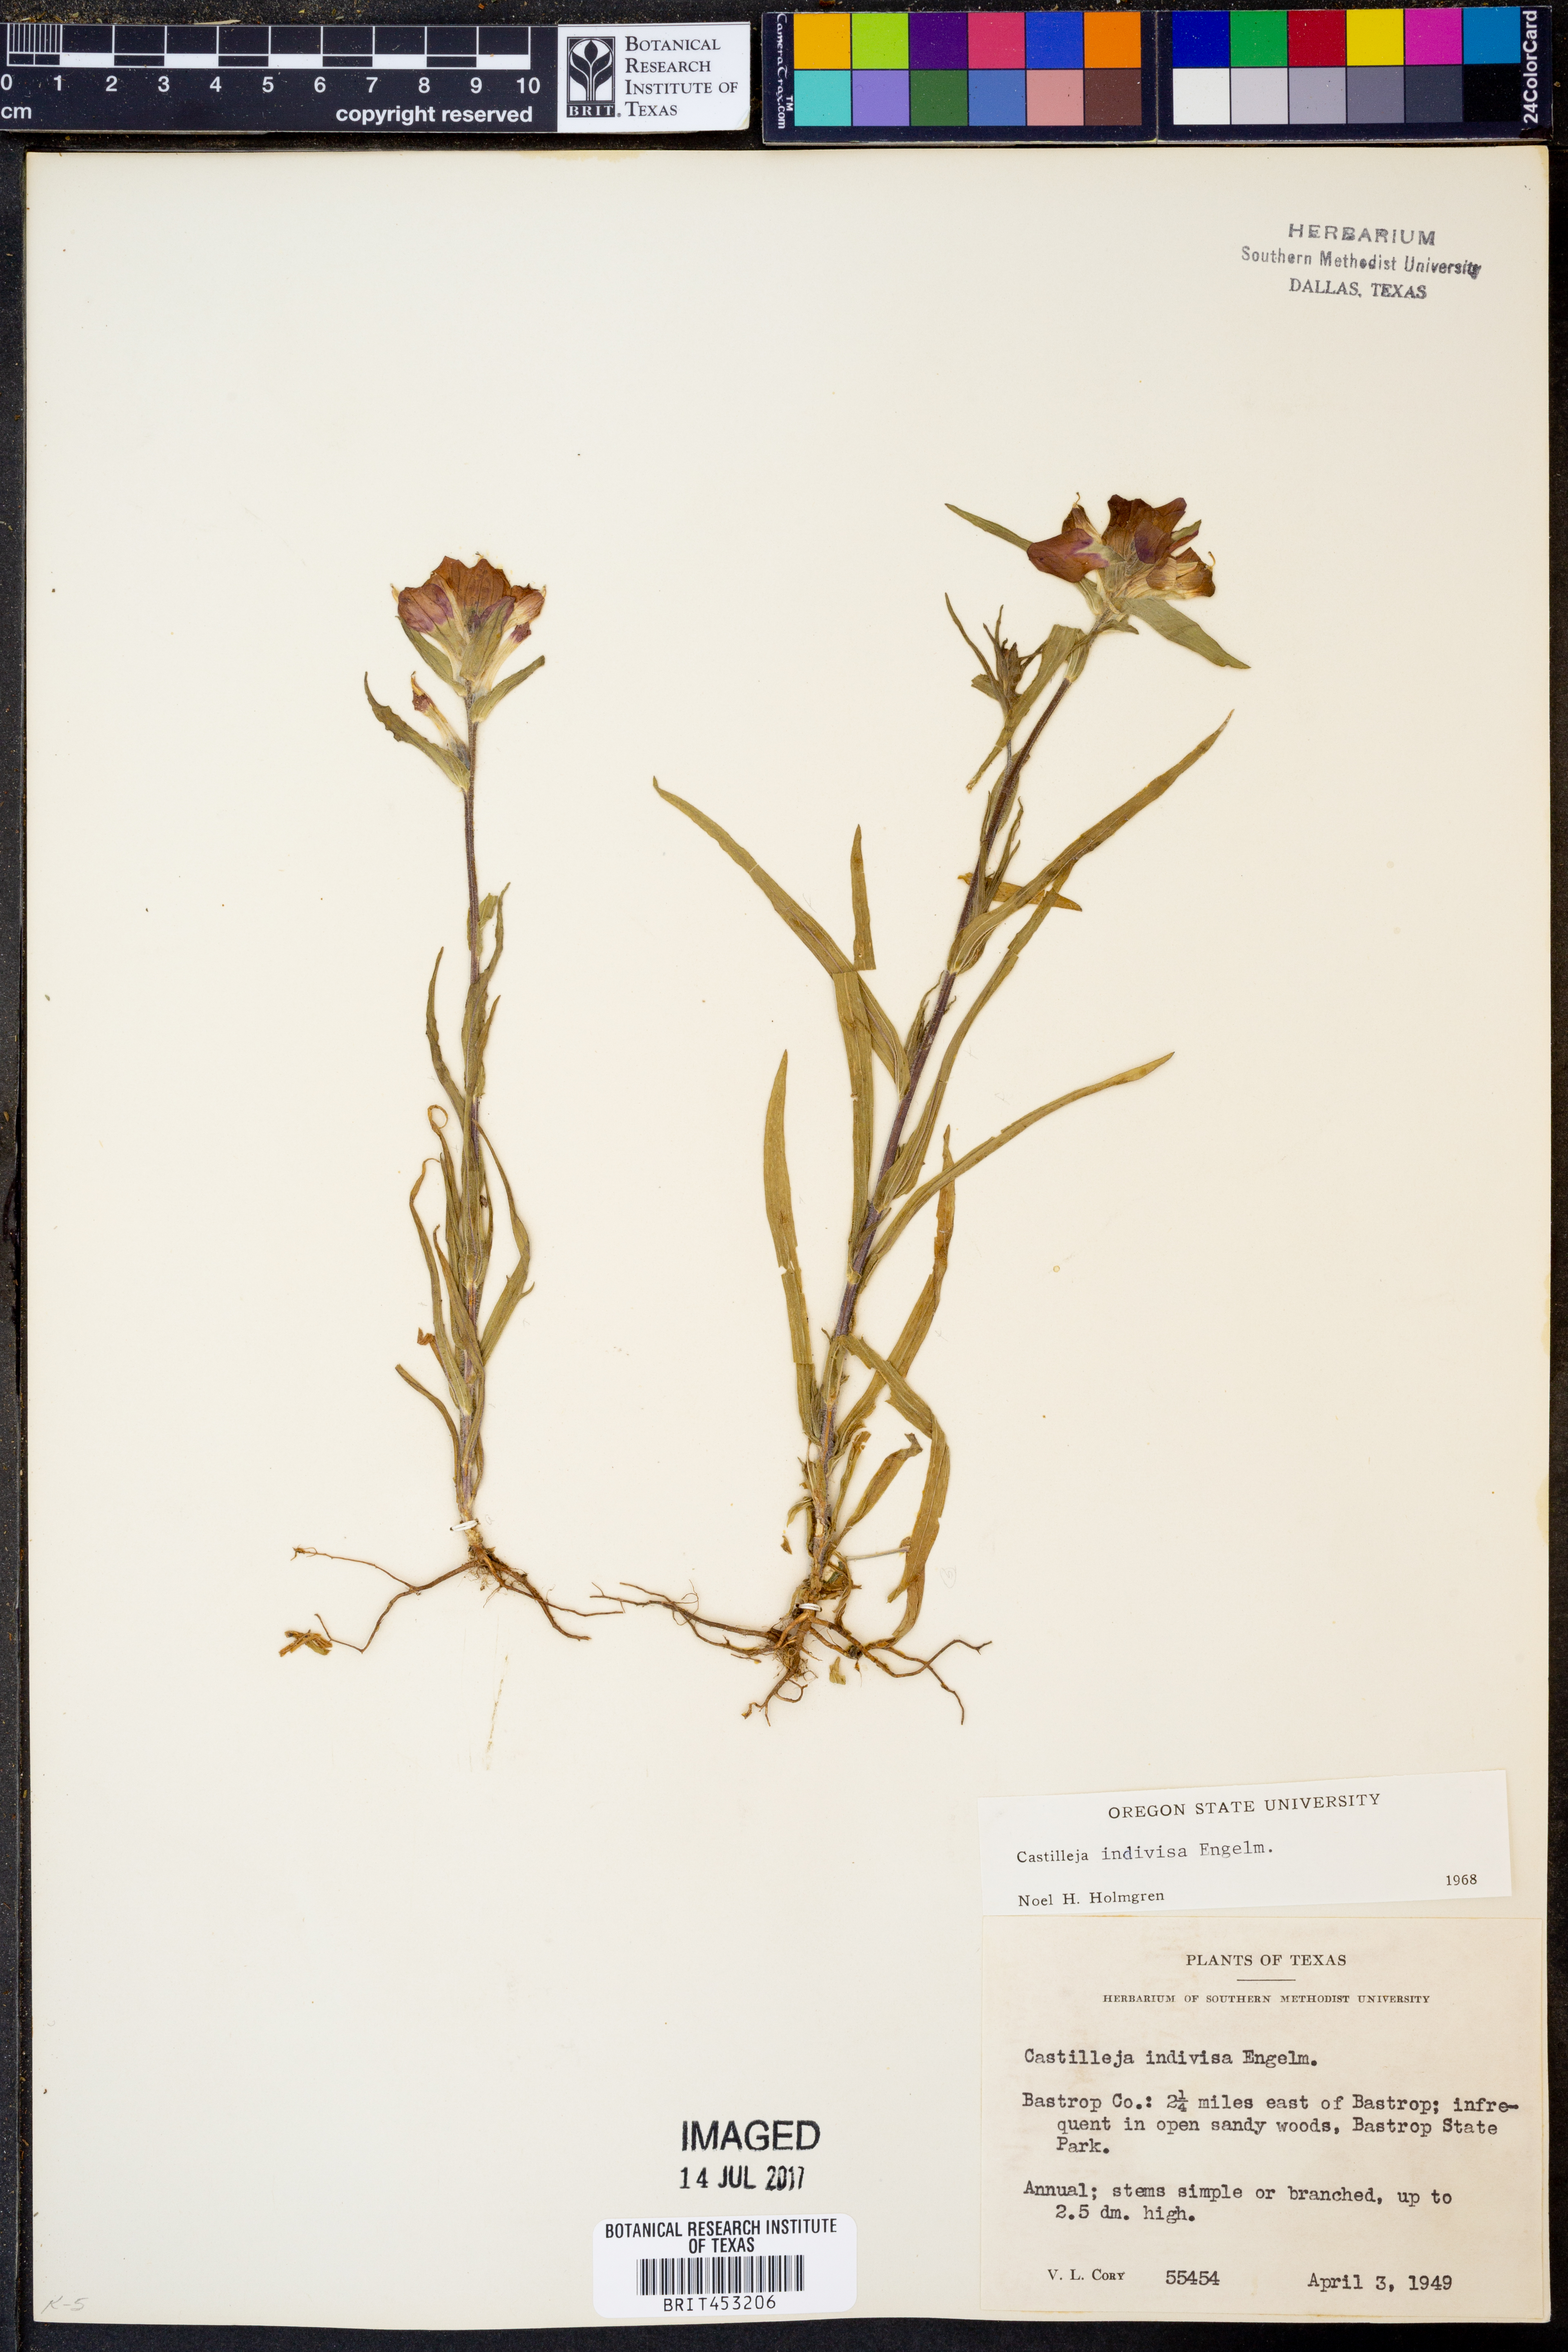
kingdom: Plantae
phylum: Tracheophyta
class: Magnoliopsida
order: Lamiales
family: Orobanchaceae
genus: Castilleja
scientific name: Castilleja indivisa
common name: Texas paintbrush
